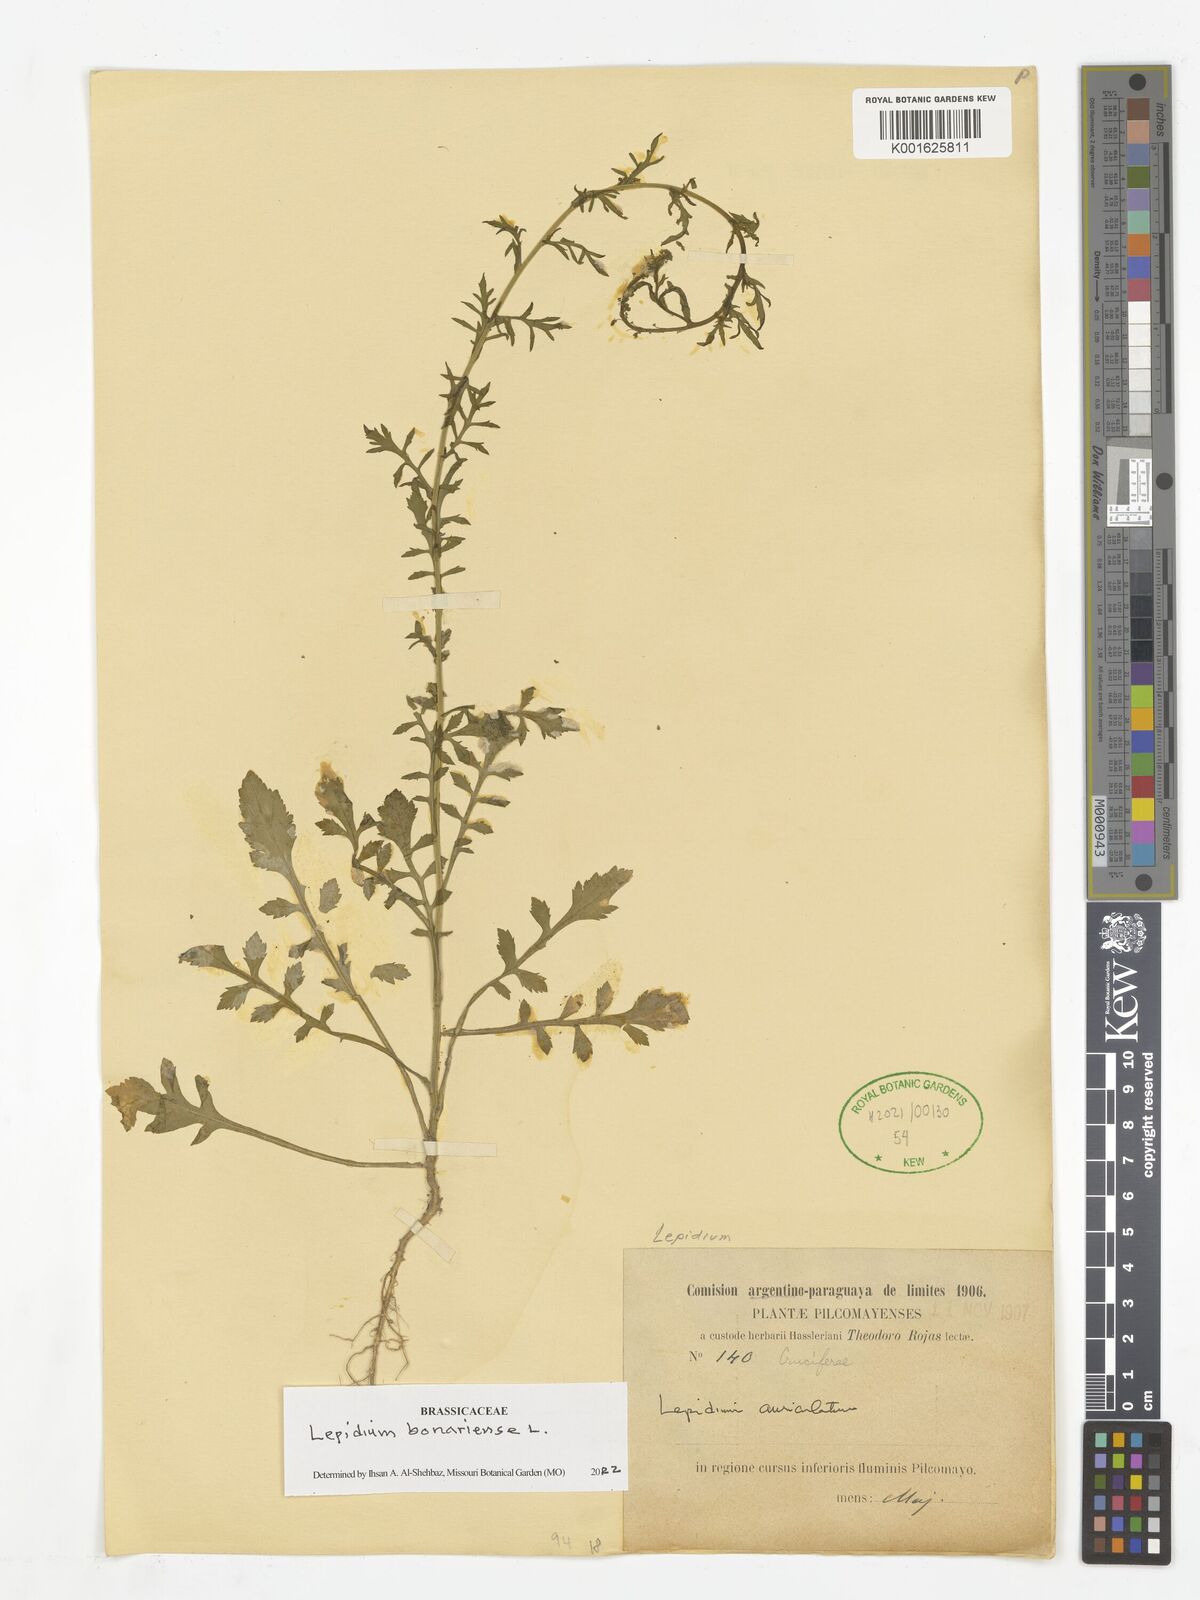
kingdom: Plantae
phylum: Tracheophyta
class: Magnoliopsida
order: Brassicales
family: Brassicaceae
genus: Lepidium
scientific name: Lepidium bonariense
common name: Argentine pepperwort
